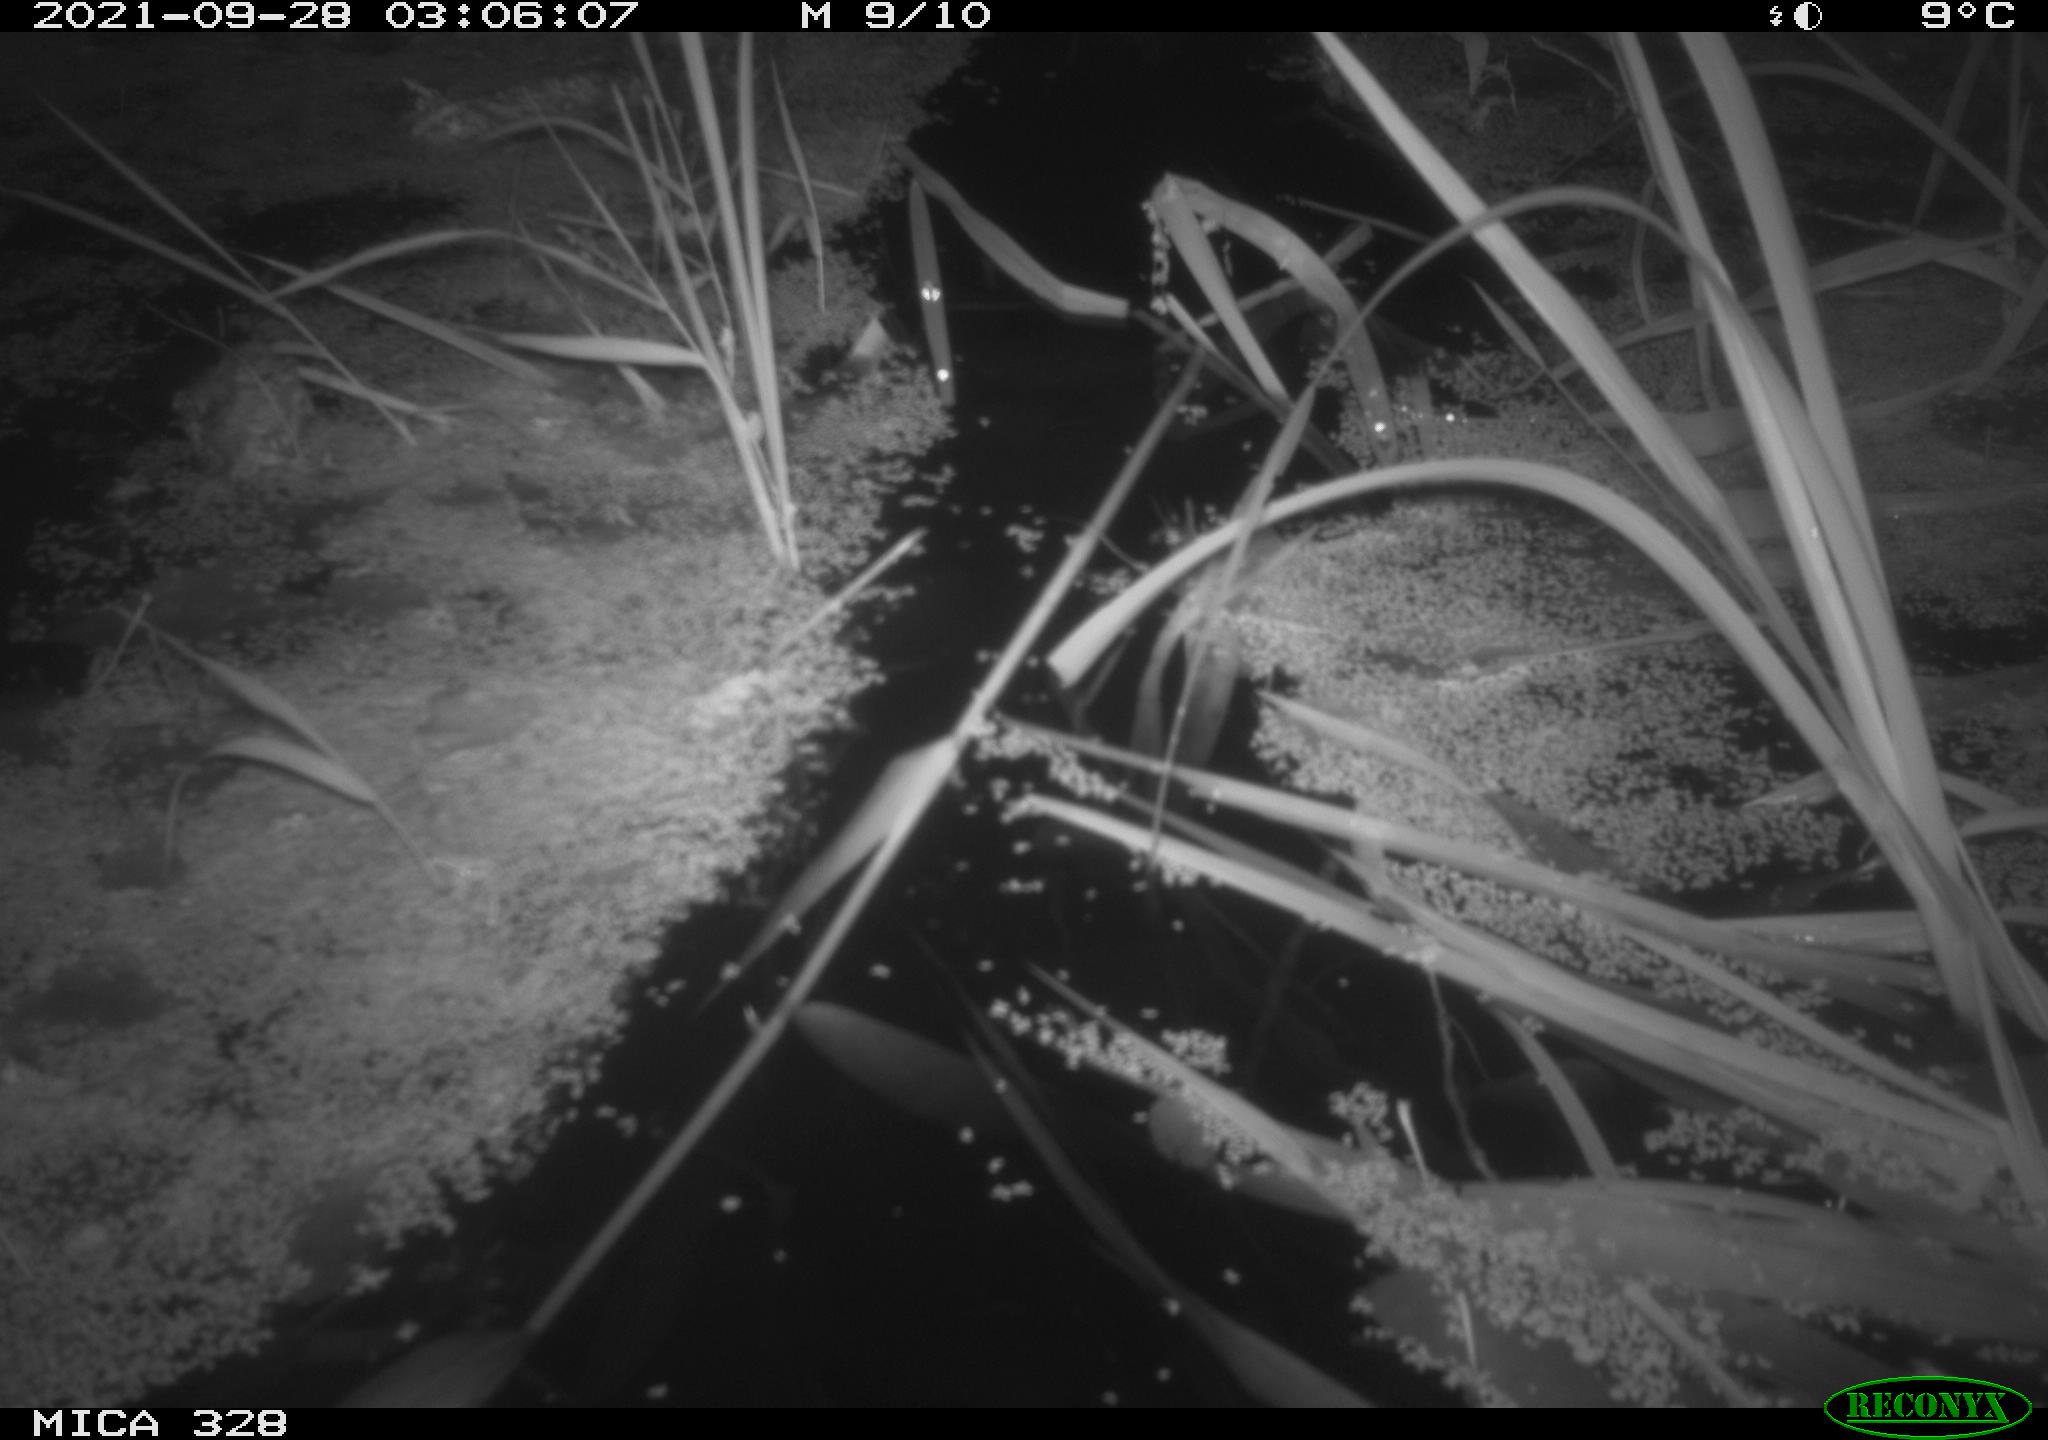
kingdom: Animalia
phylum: Chordata
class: Mammalia
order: Rodentia
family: Cricetidae
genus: Ondatra
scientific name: Ondatra zibethicus
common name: Muskrat
